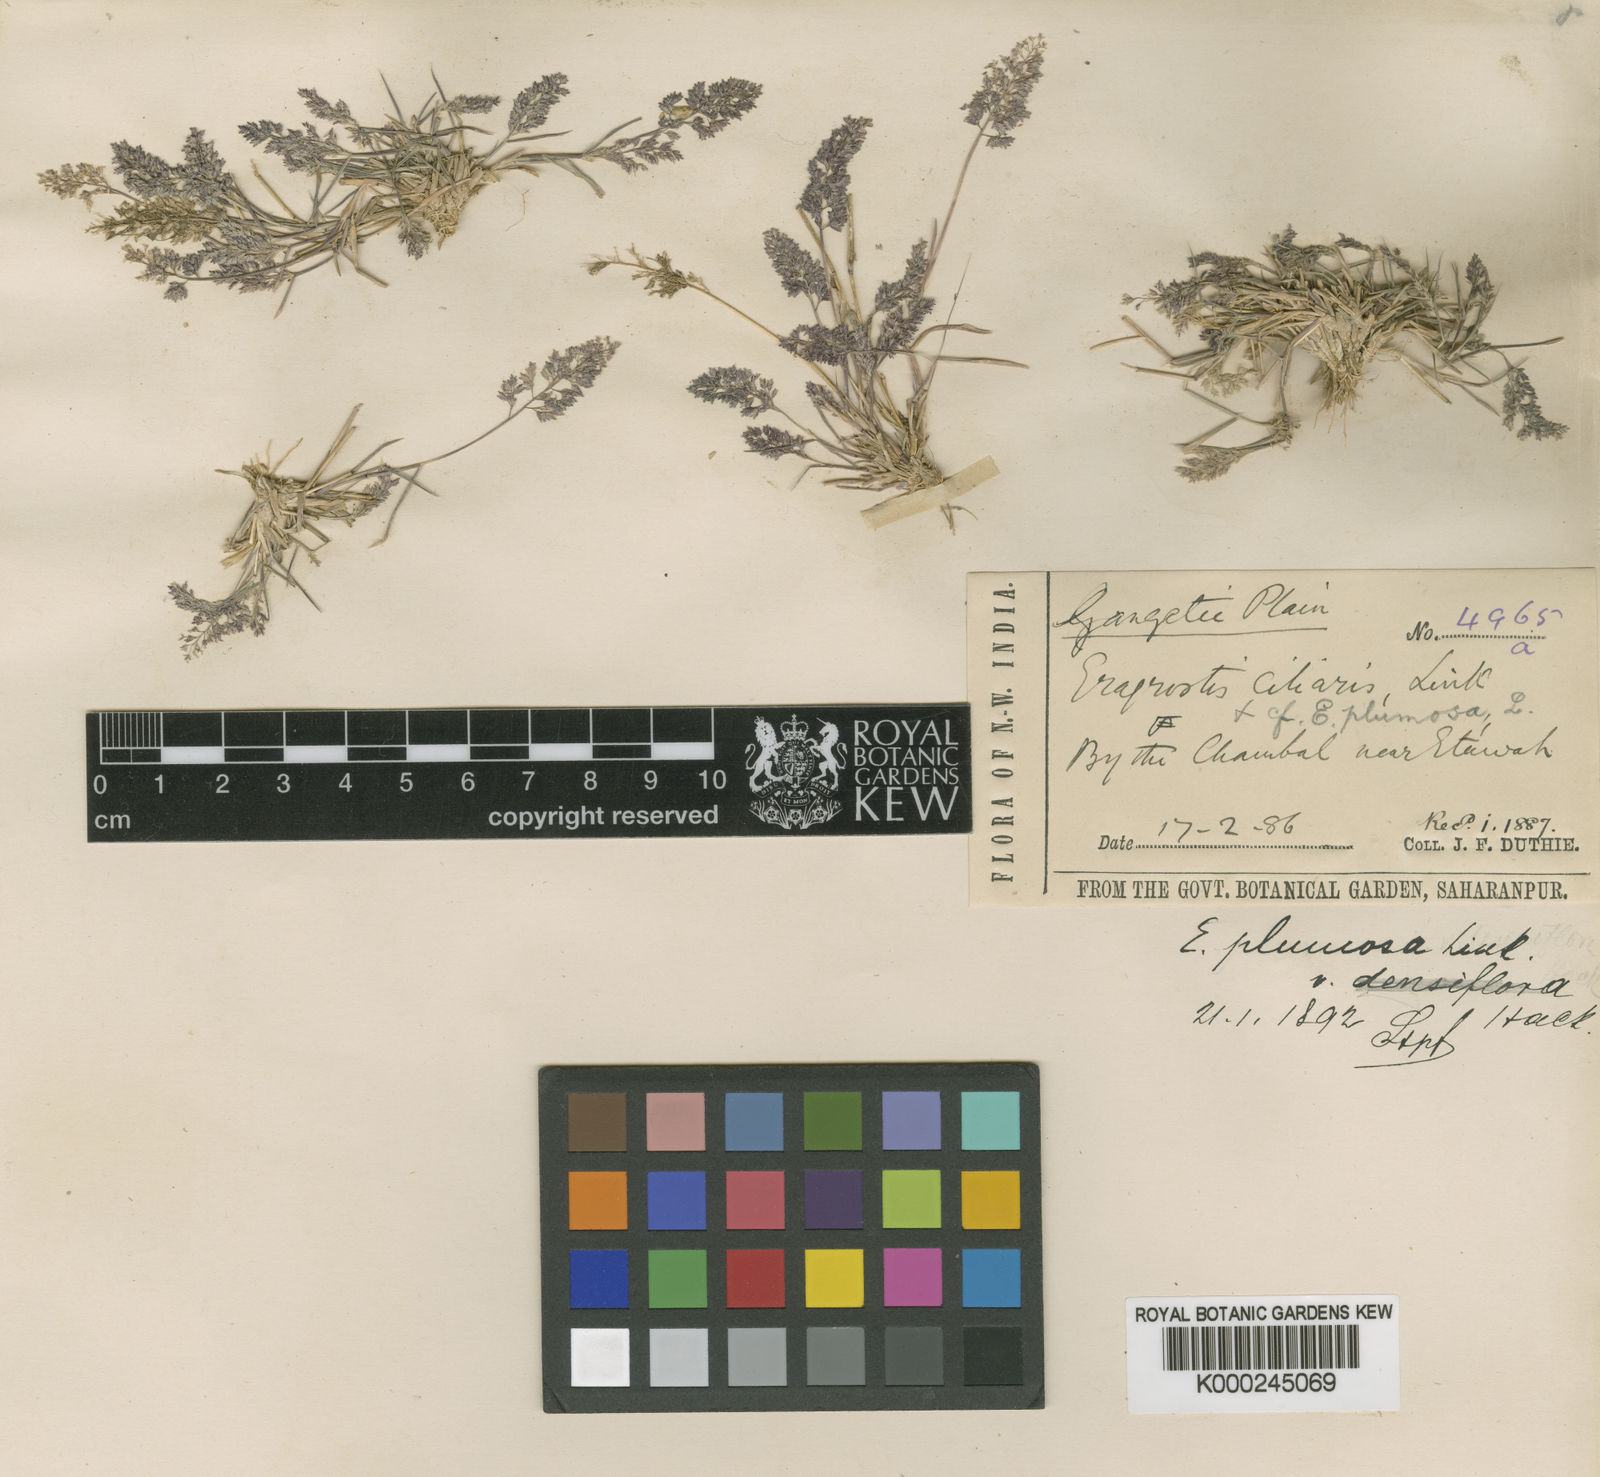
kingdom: Plantae
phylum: Tracheophyta
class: Liliopsida
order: Poales
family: Poaceae
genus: Eragrostis
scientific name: Eragrostis tenella
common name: Japanese lovegrass
